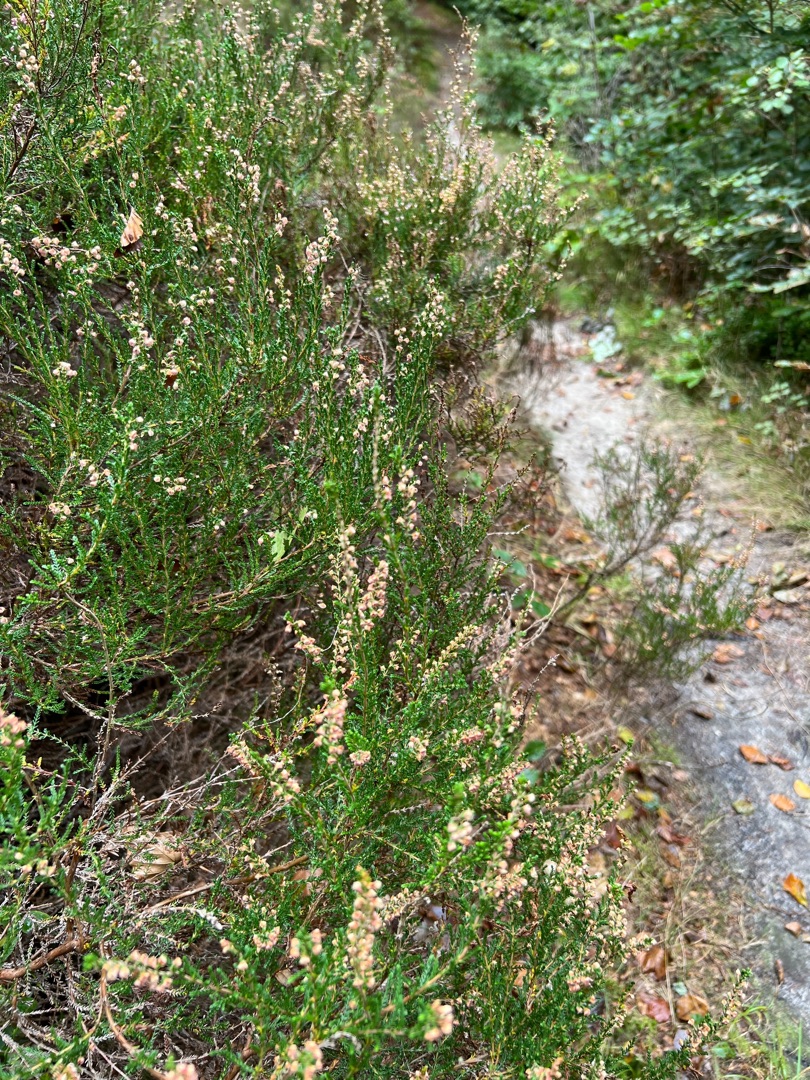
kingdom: Plantae
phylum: Tracheophyta
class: Magnoliopsida
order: Ericales
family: Ericaceae
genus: Calluna
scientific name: Calluna vulgaris
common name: Hedelyng
